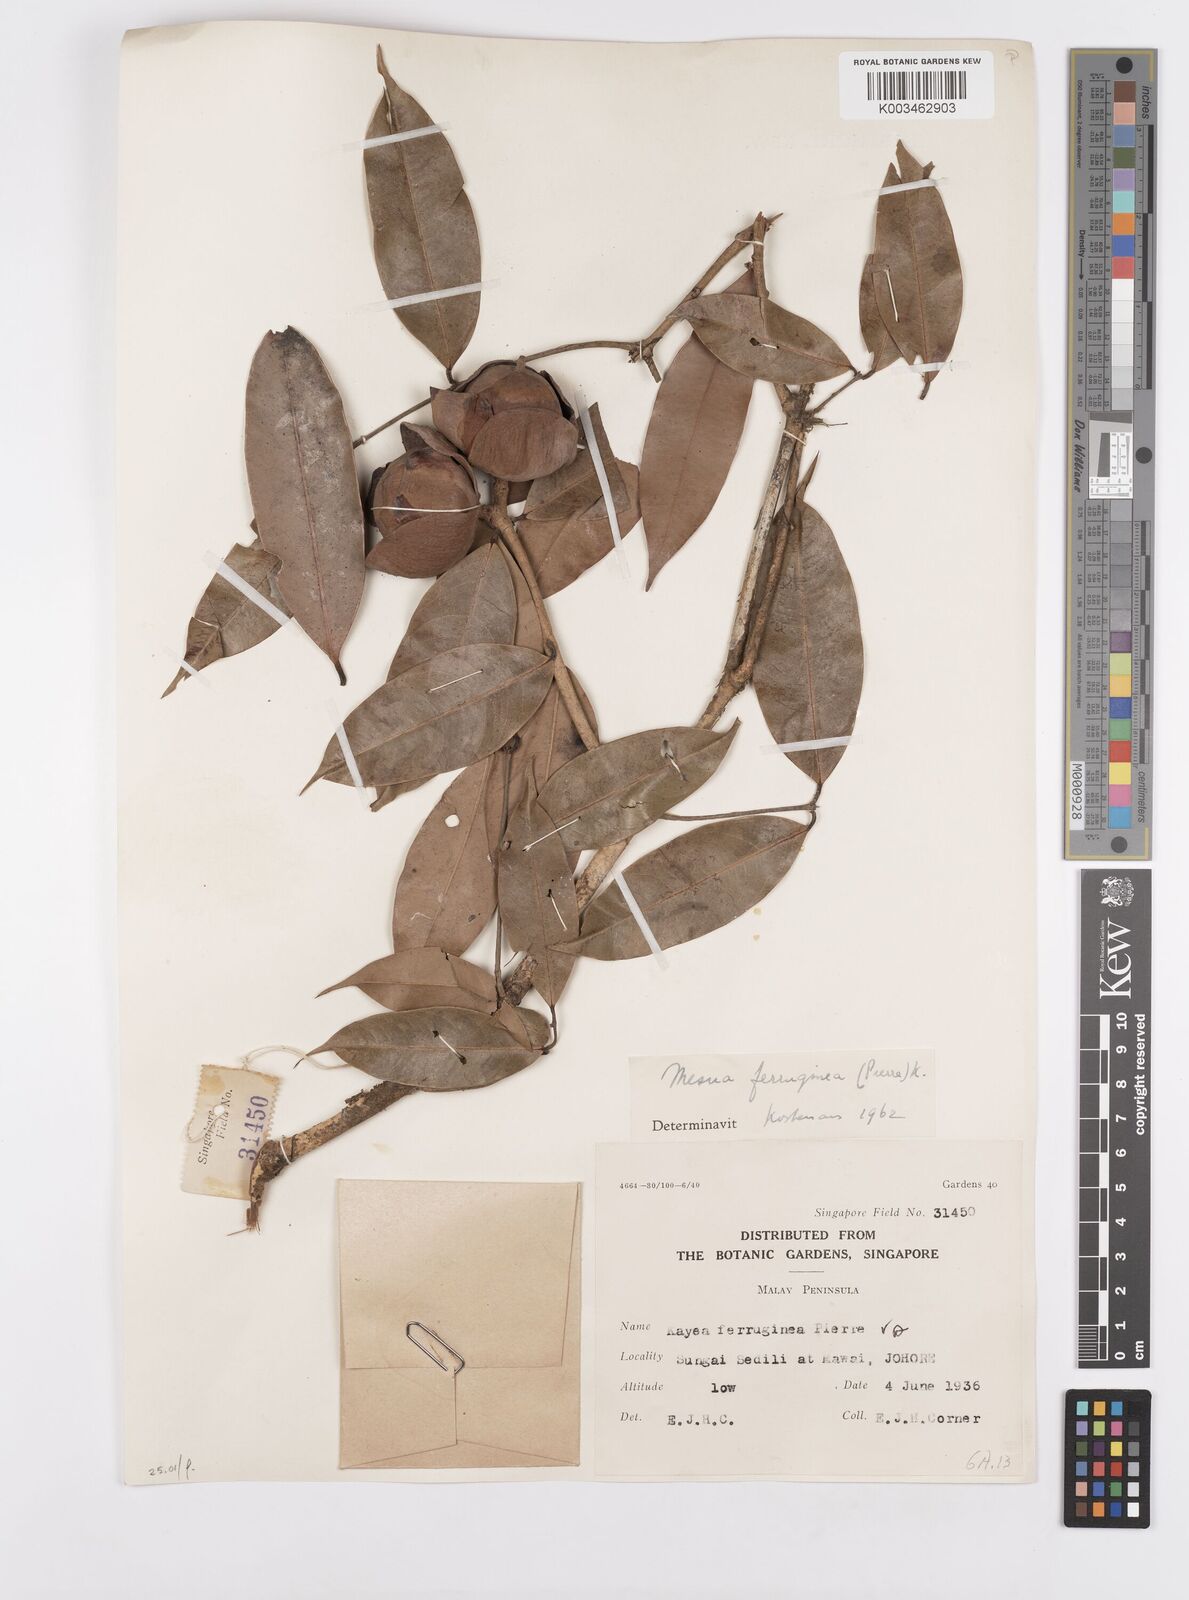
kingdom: Plantae
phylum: Tracheophyta
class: Magnoliopsida
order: Malpighiales
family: Calophyllaceae
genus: Kayea
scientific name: Kayea manii
